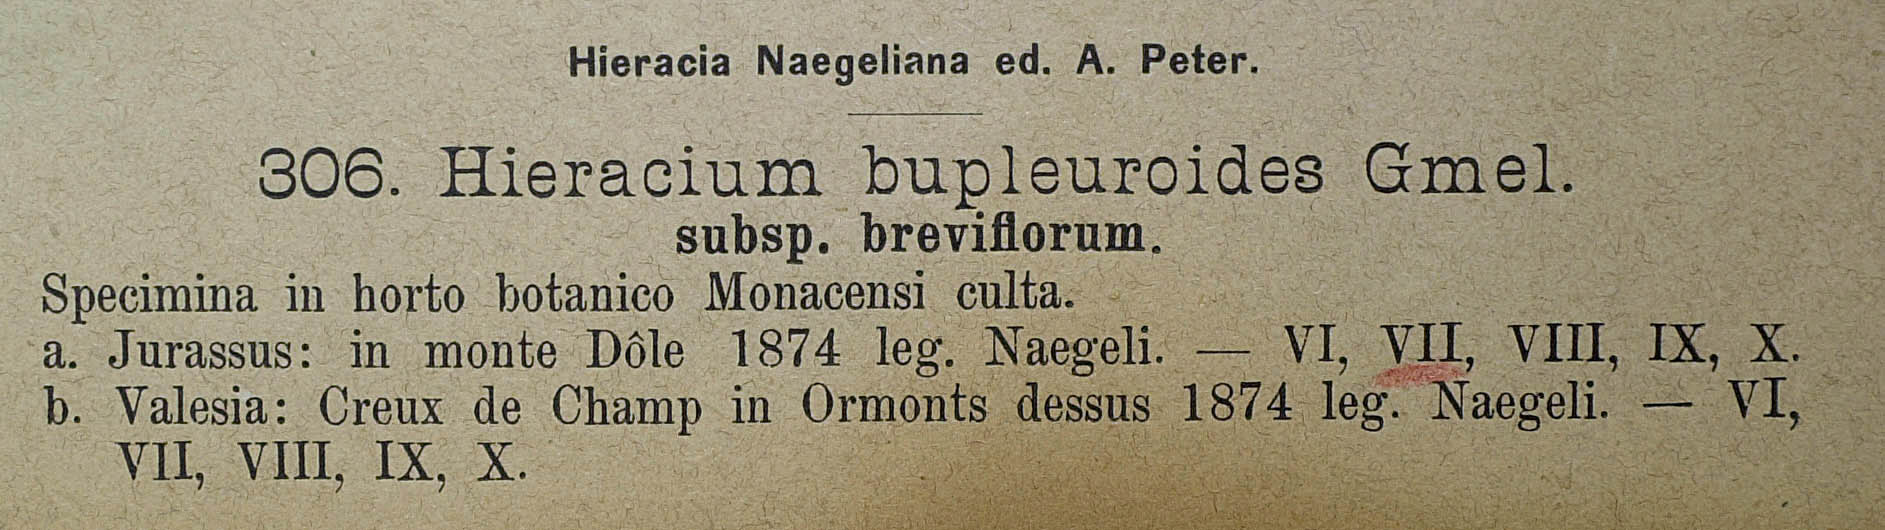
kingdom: Plantae
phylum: Tracheophyta
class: Magnoliopsida
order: Asterales
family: Asteraceae
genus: Hieracium
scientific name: Hieracium bupleuroides
